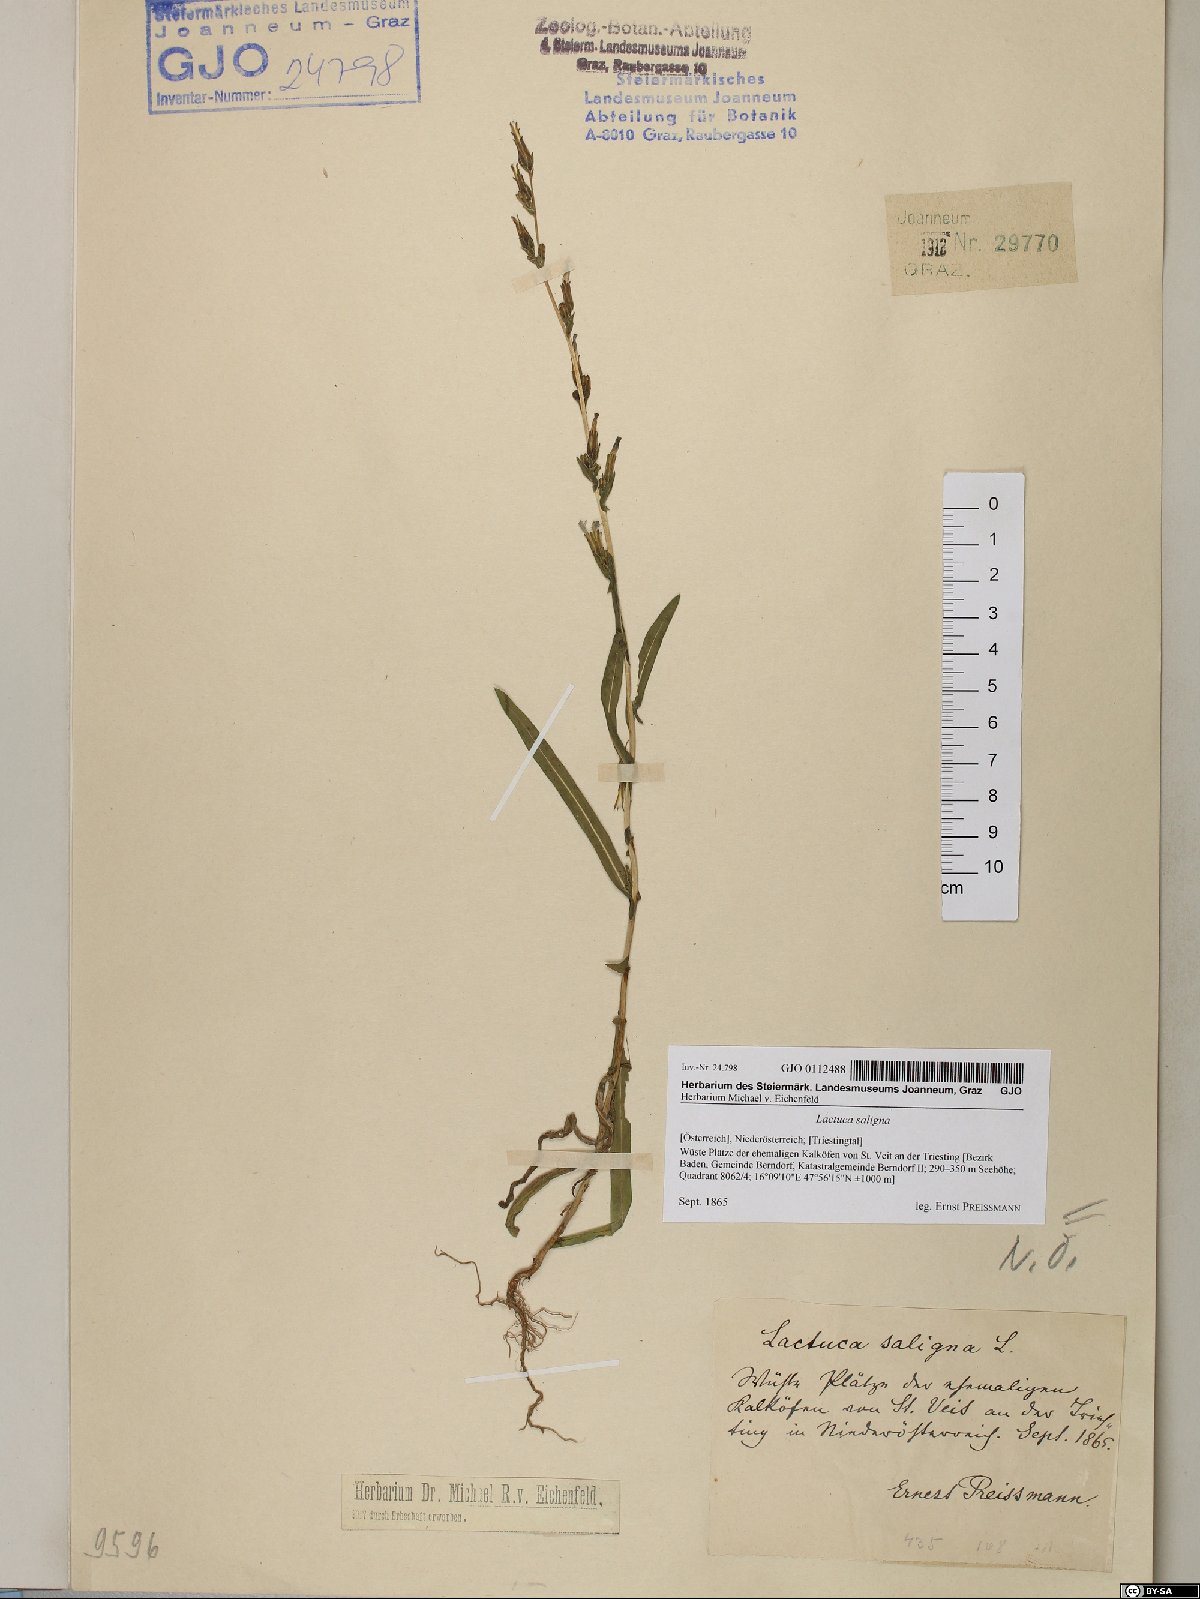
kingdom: Plantae
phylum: Tracheophyta
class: Magnoliopsida
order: Asterales
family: Asteraceae
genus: Lactuca
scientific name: Lactuca saligna
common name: Wild lettuce
